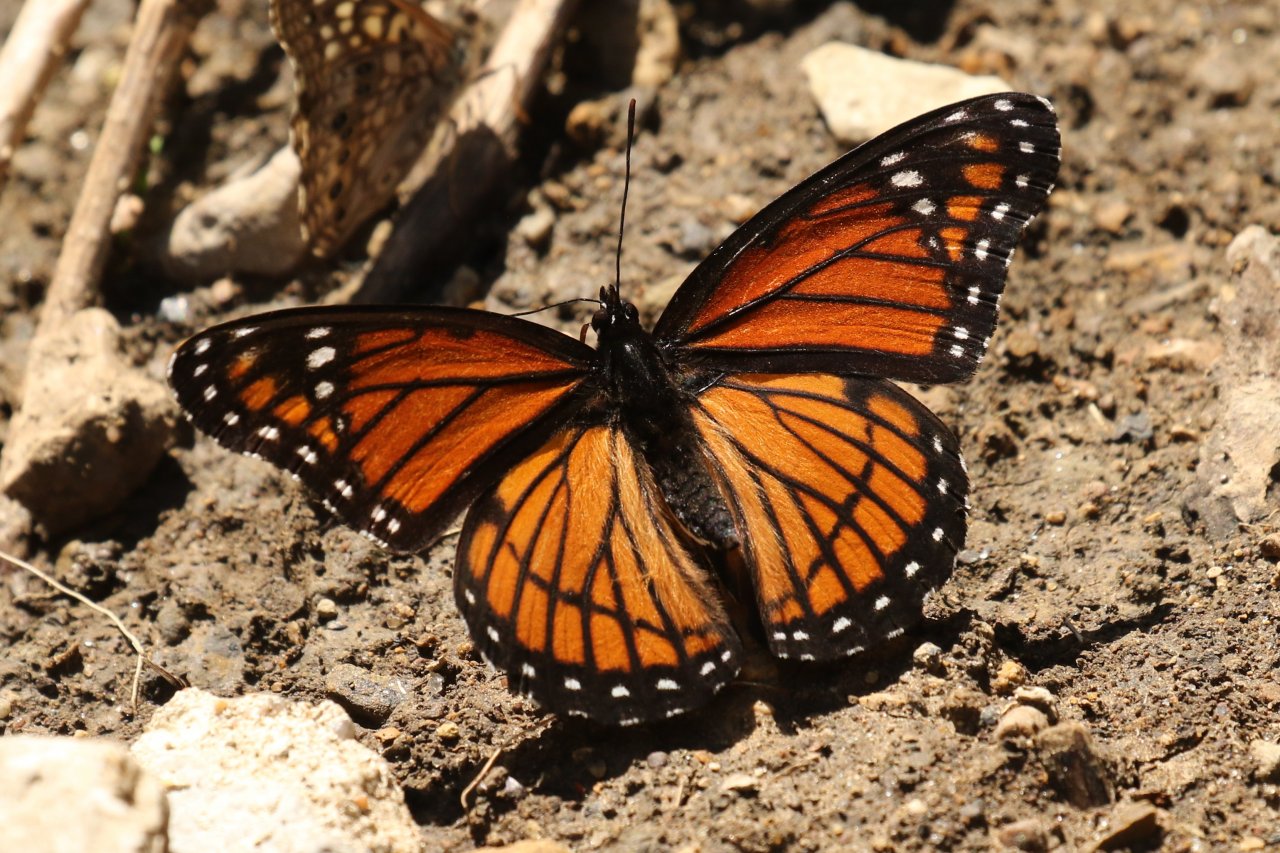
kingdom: Animalia
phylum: Arthropoda
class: Insecta
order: Lepidoptera
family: Nymphalidae
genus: Limenitis
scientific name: Limenitis archippus
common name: Viceroy
